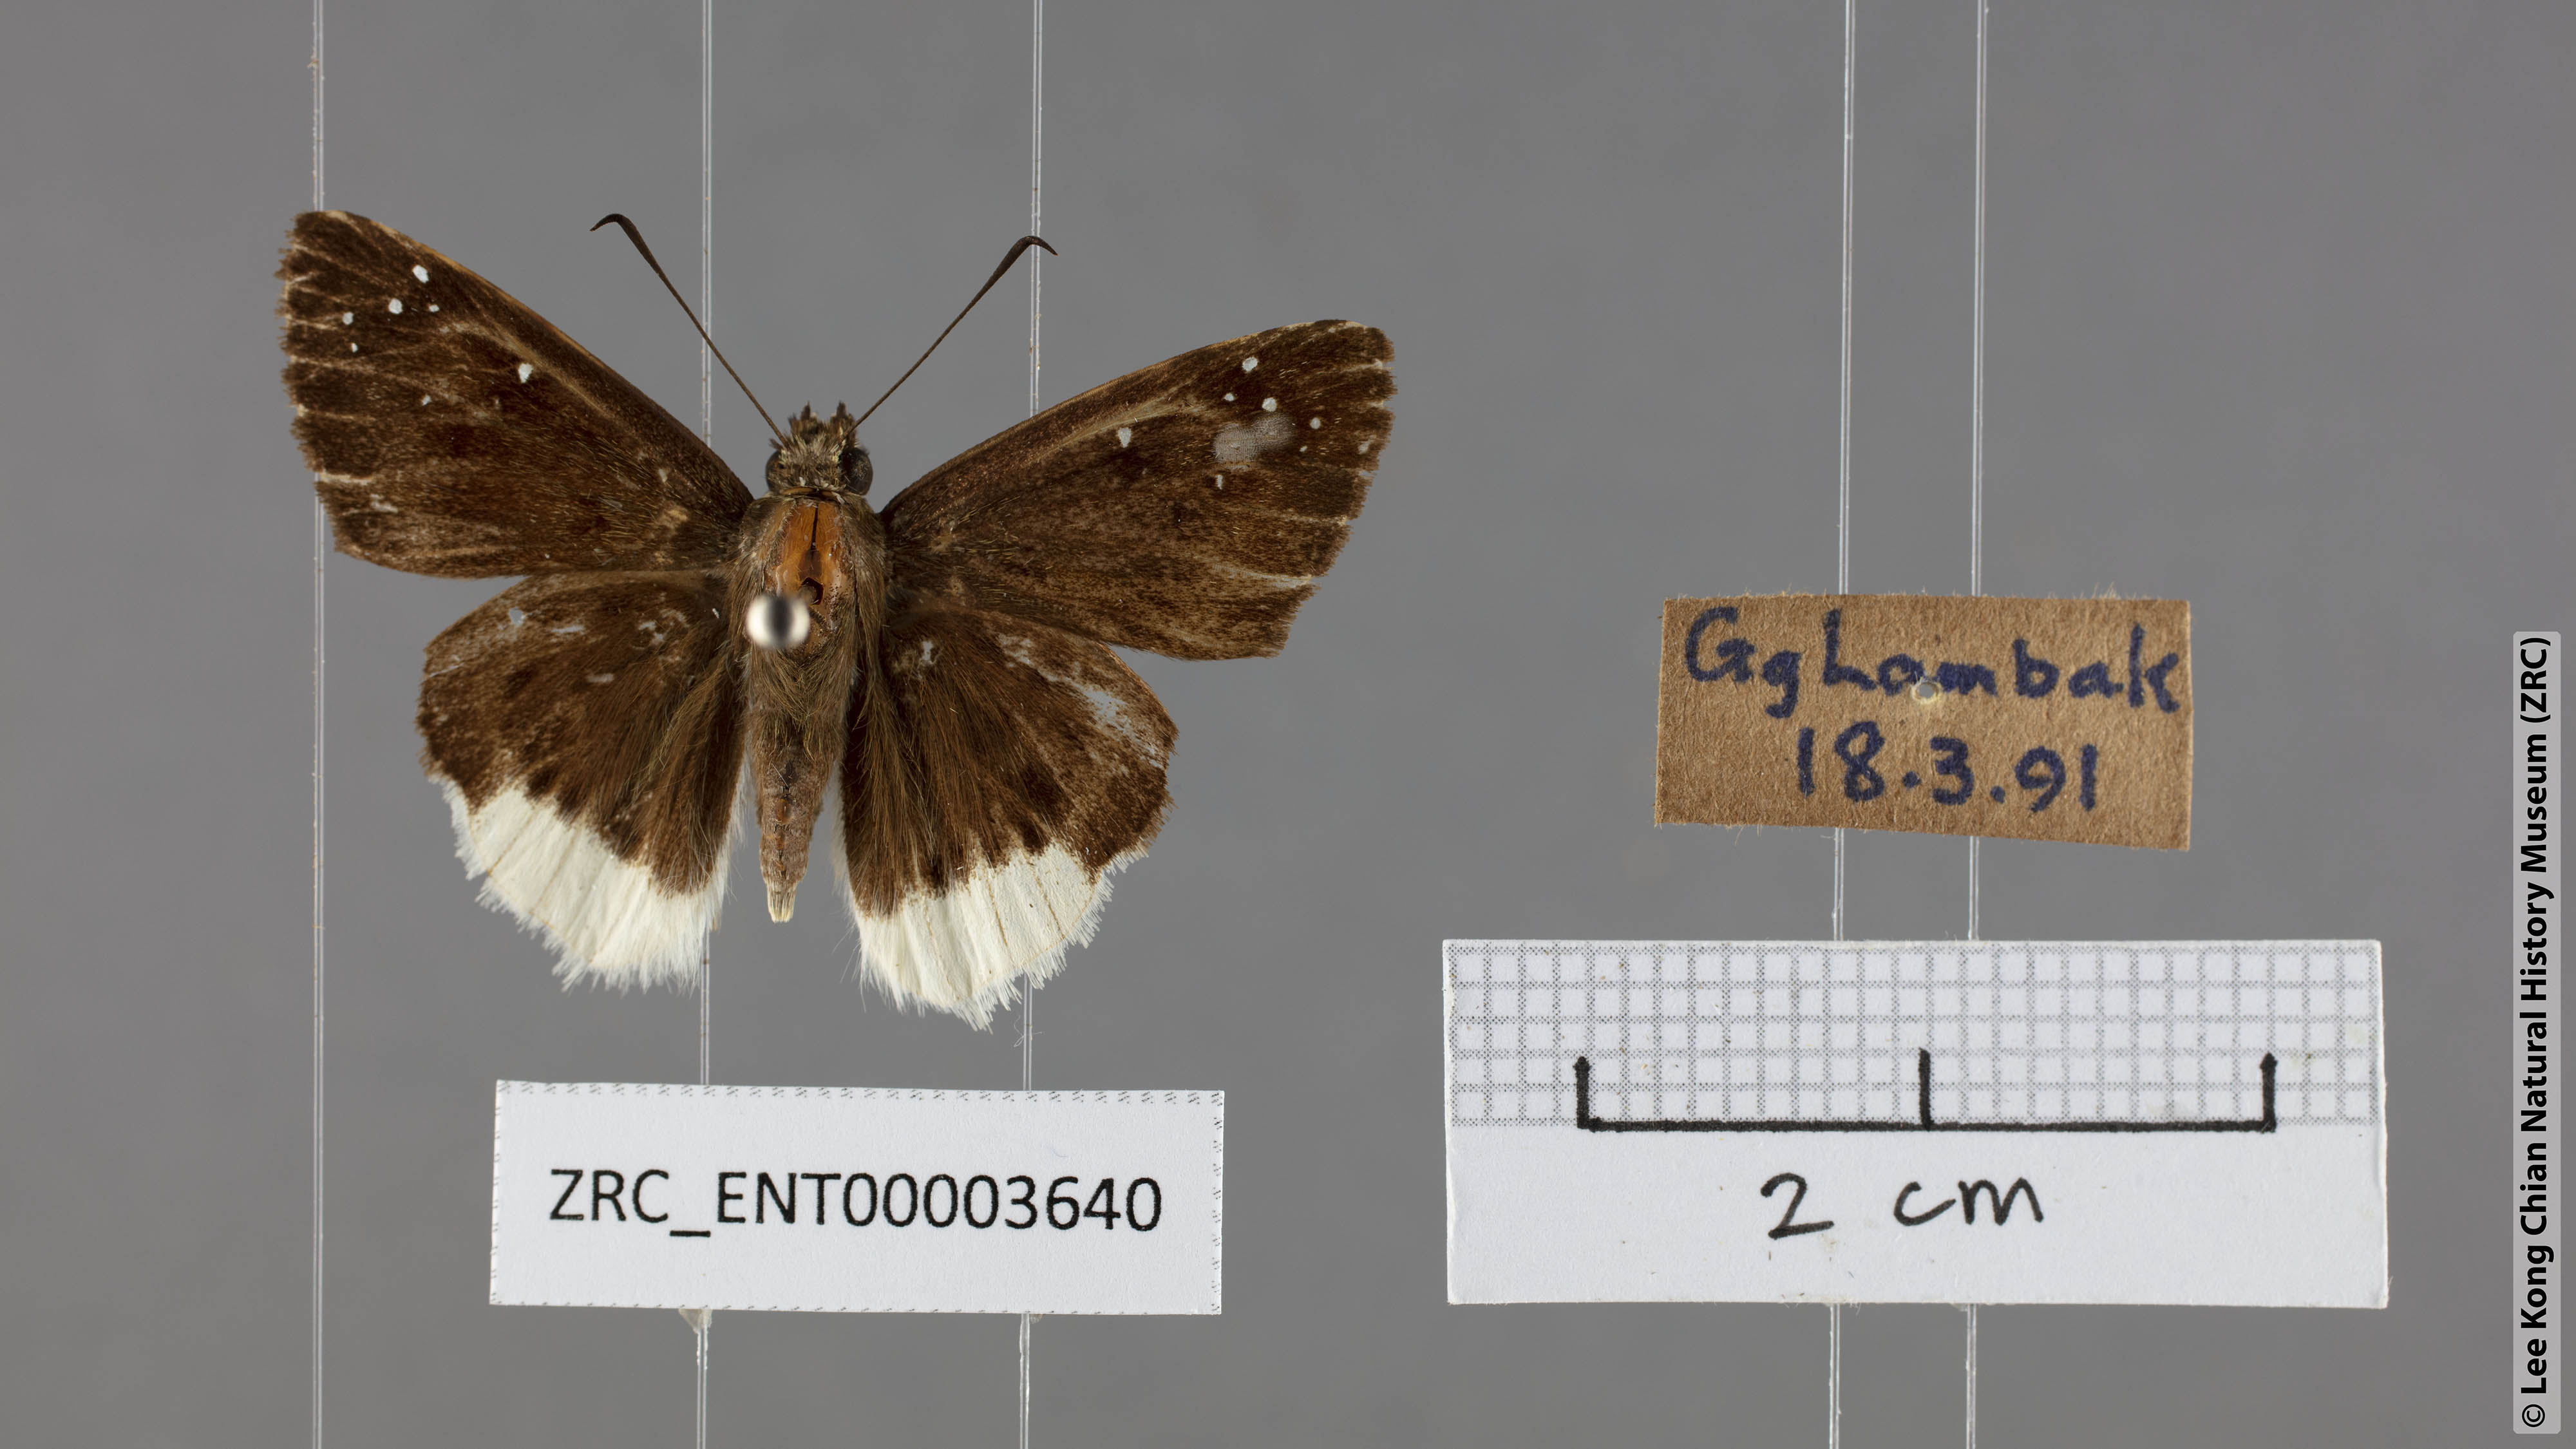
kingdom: Animalia
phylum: Arthropoda
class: Insecta
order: Lepidoptera
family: Hesperiidae
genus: Darpa
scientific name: Darpa pterica
